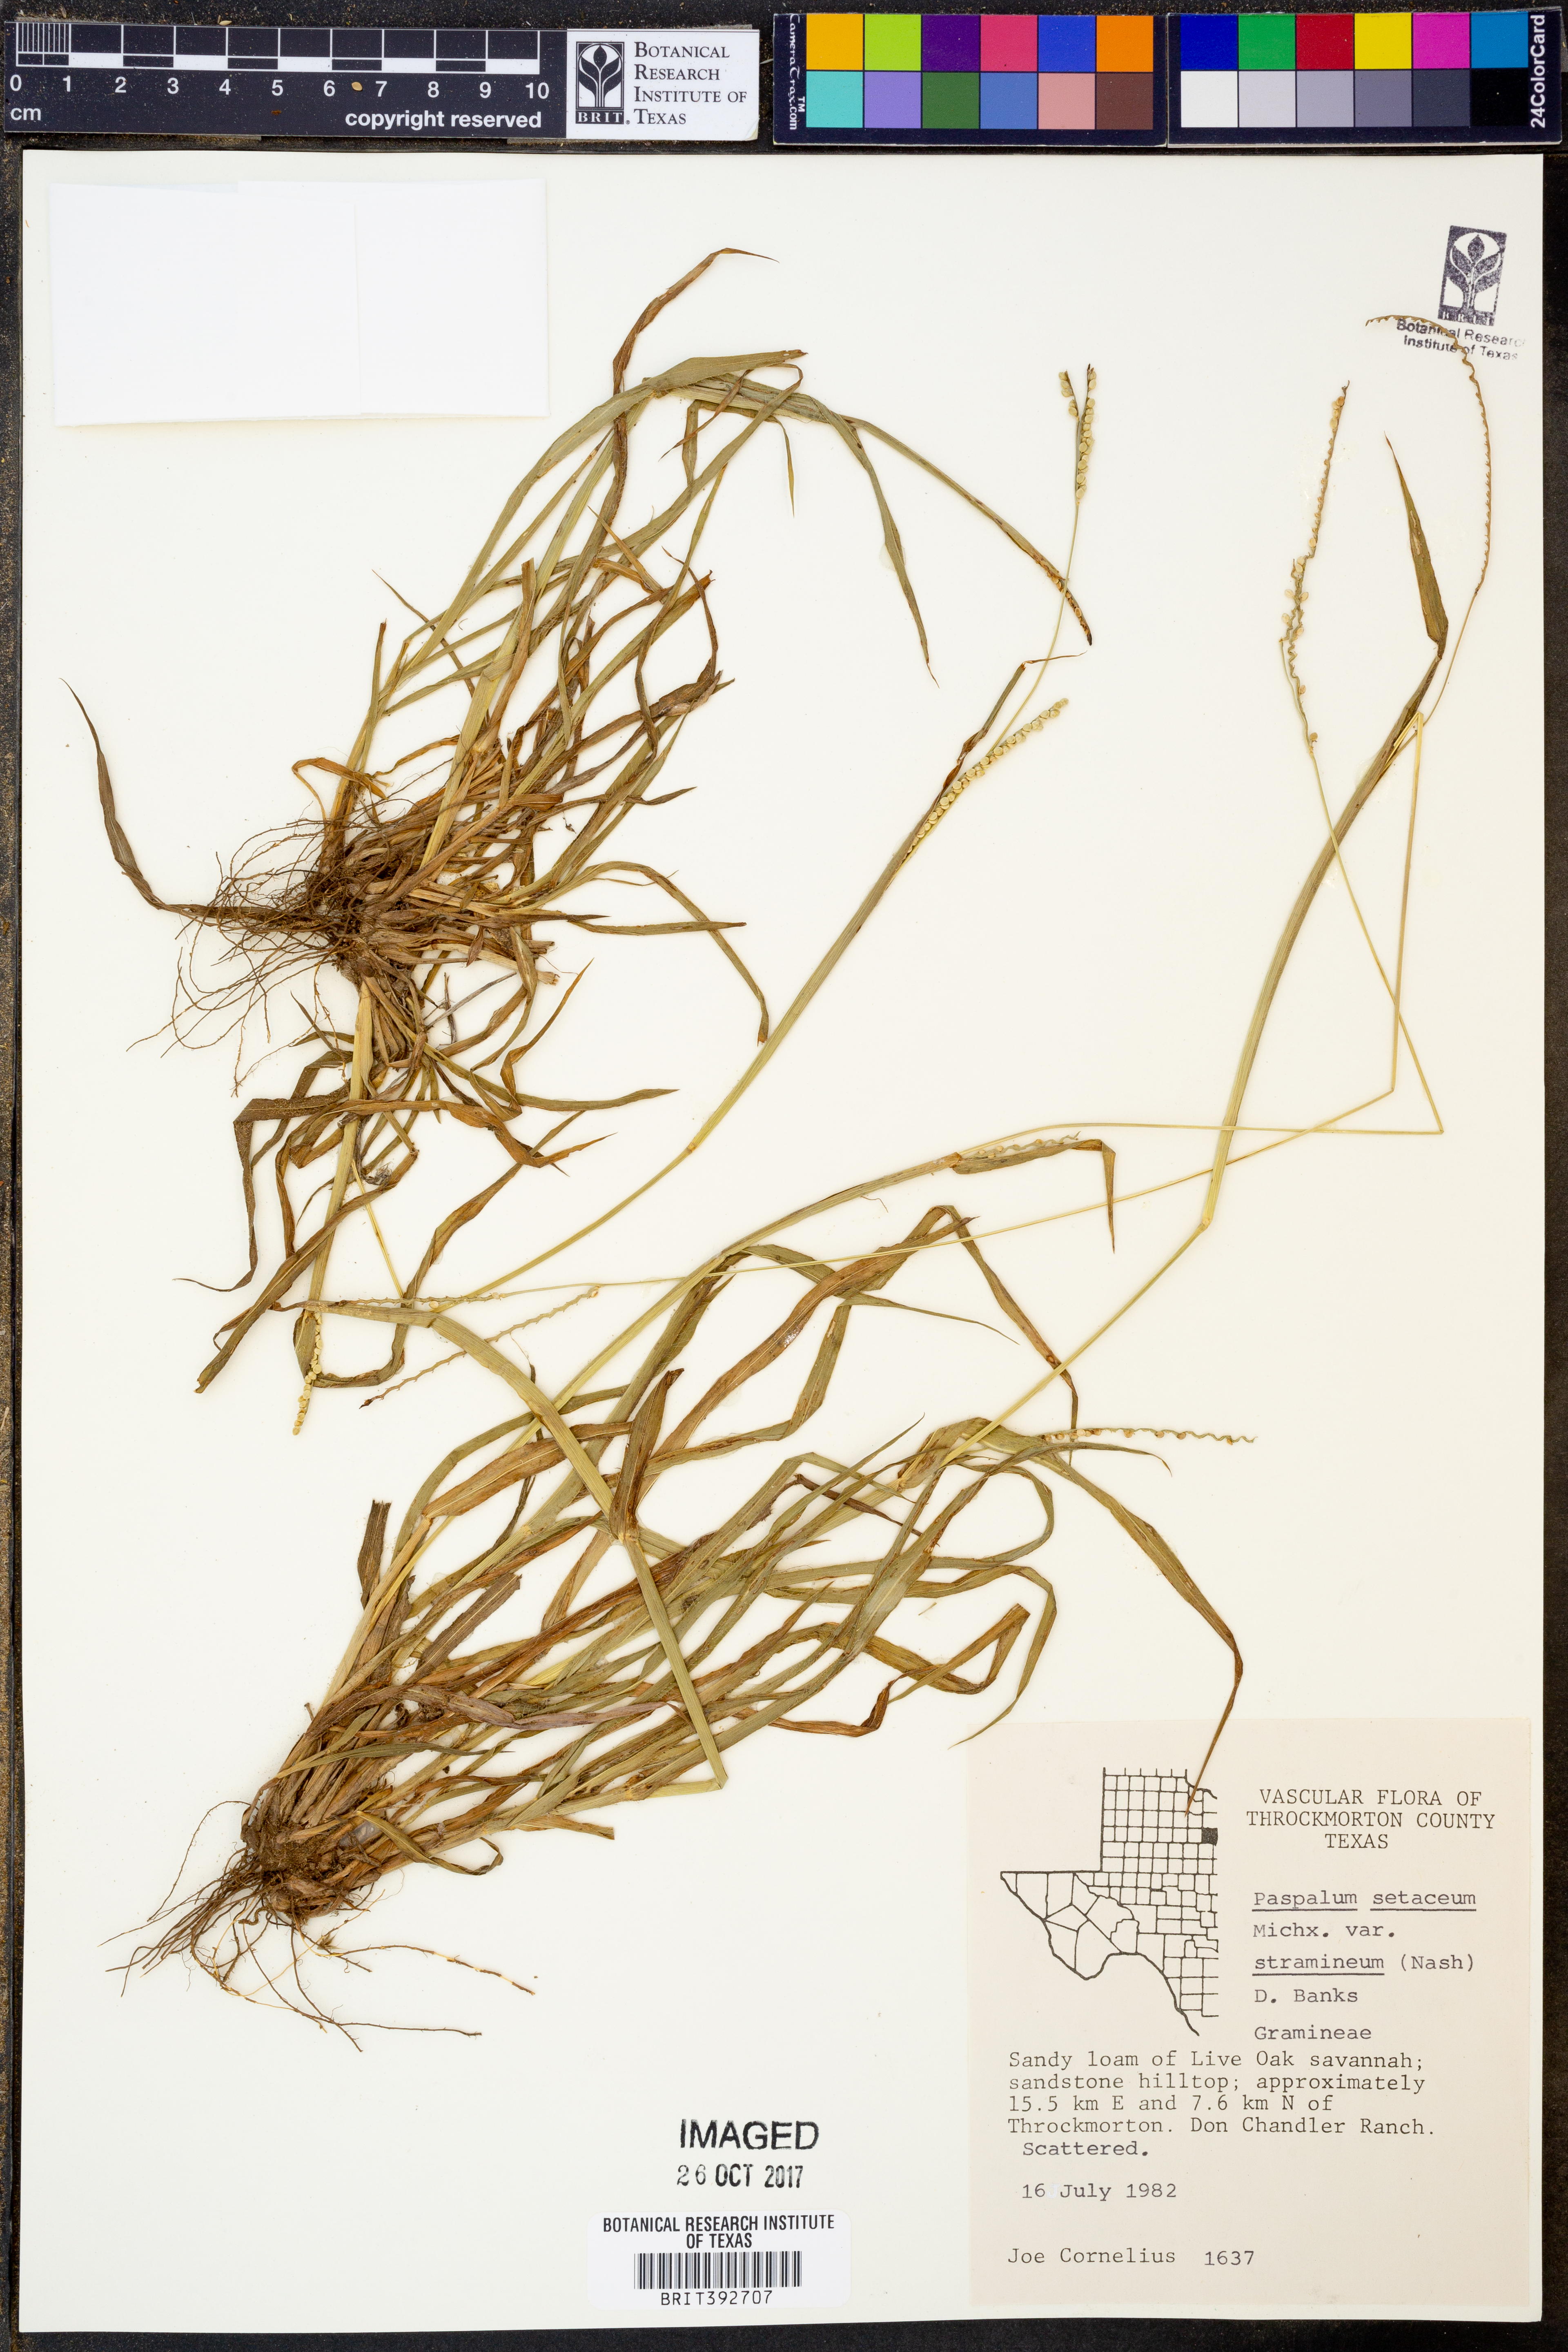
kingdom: Plantae
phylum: Tracheophyta
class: Liliopsida
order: Poales
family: Poaceae
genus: Paspalum
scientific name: Paspalum setaceum
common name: Slender paspalum
